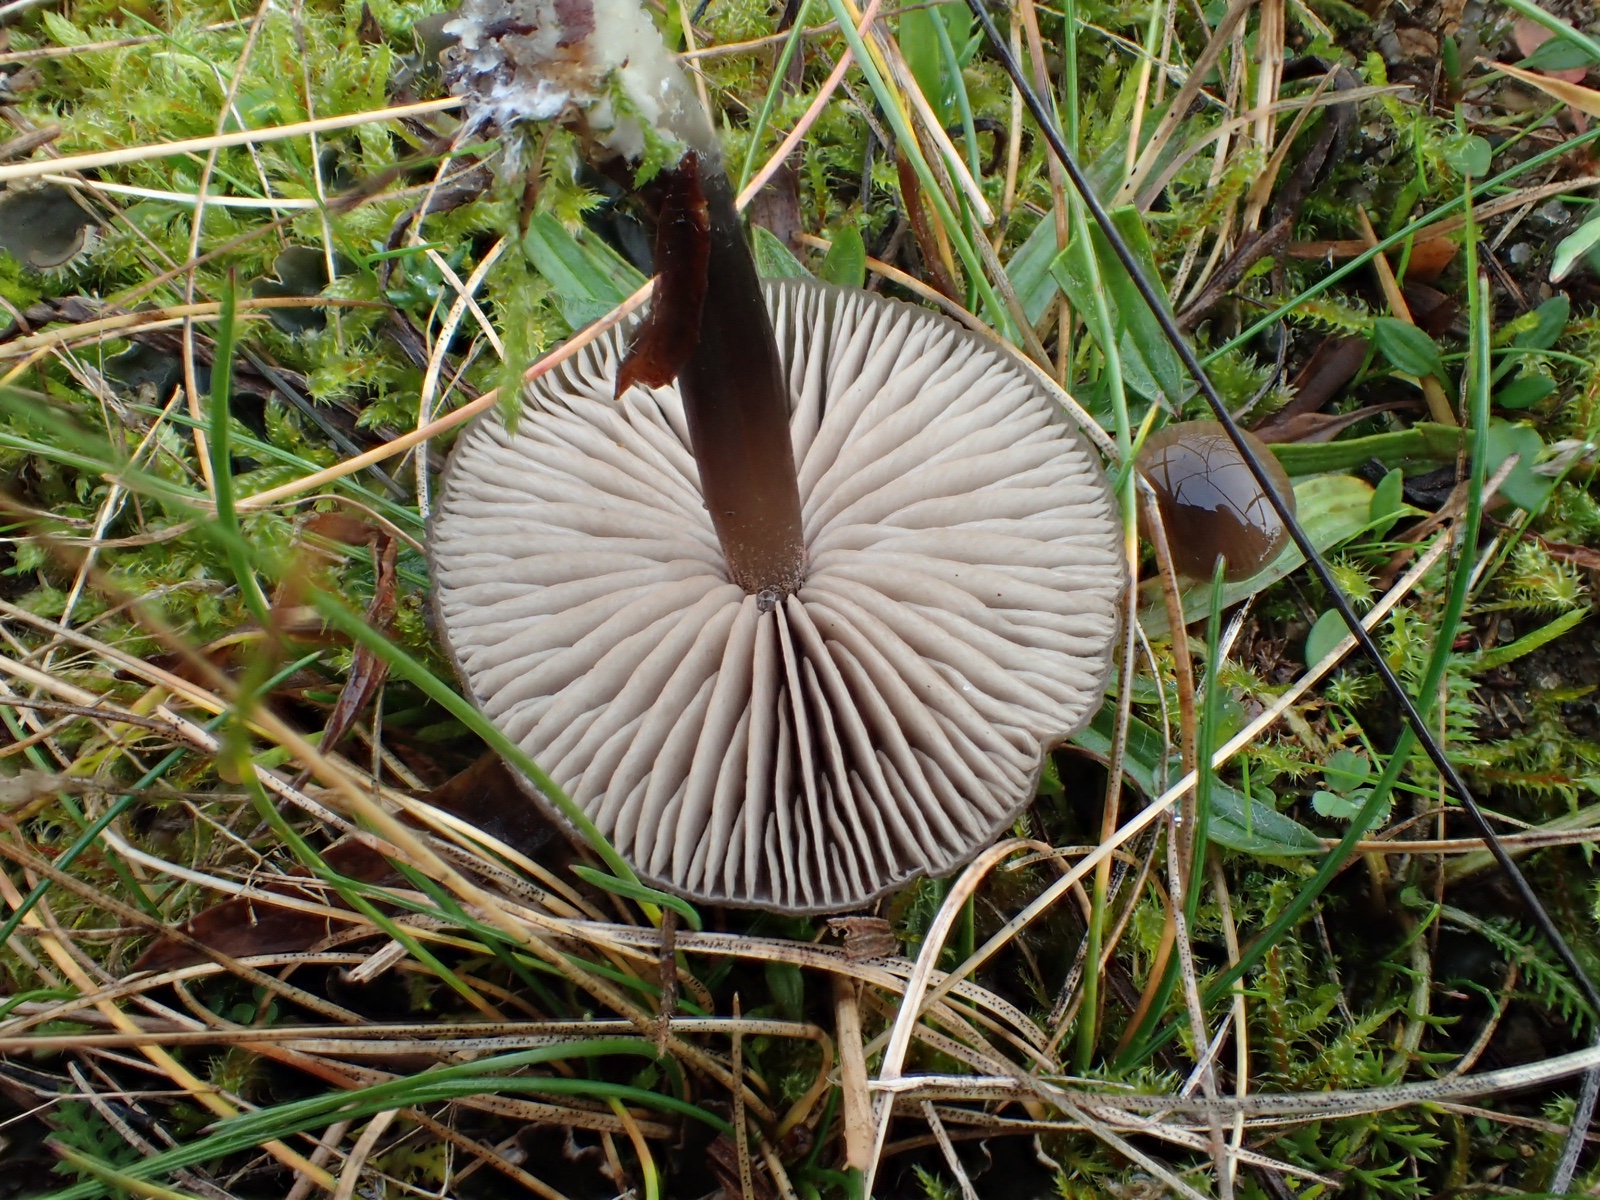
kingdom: Fungi
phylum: Basidiomycota
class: Agaricomycetes
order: Agaricales
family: Entolomataceae
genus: Entoloma
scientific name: Entoloma sericeum
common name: silkeglinsende rødblad
